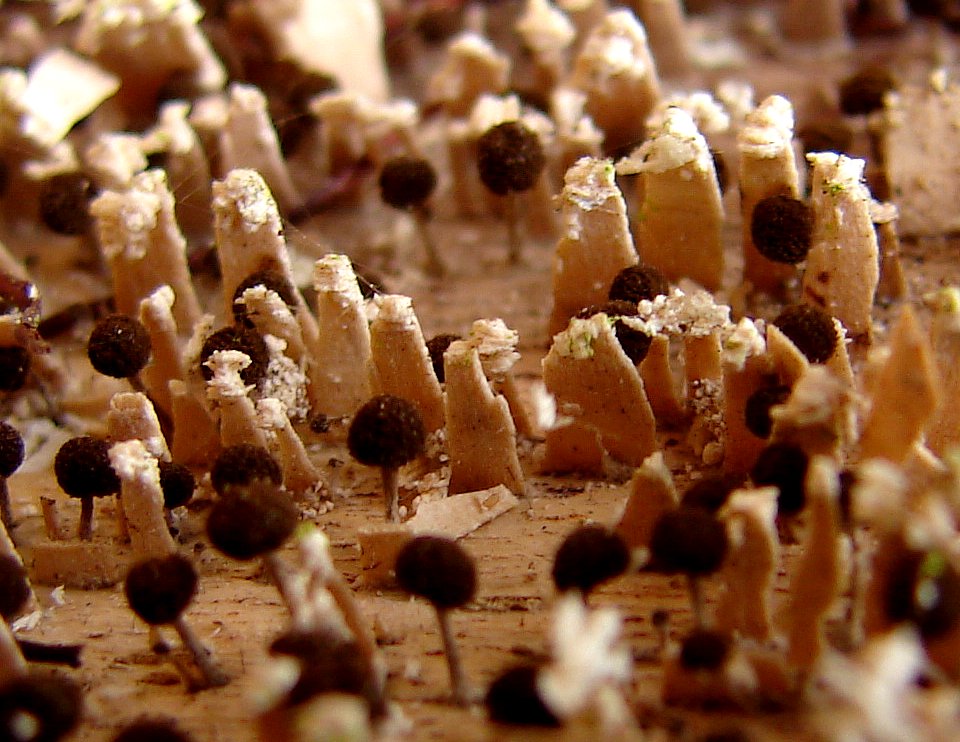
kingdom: Fungi
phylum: Basidiomycota
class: Atractiellomycetes
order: Atractiellales
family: Phleogenaceae
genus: Phleogena
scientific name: Phleogena faginea
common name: pudderkølle
